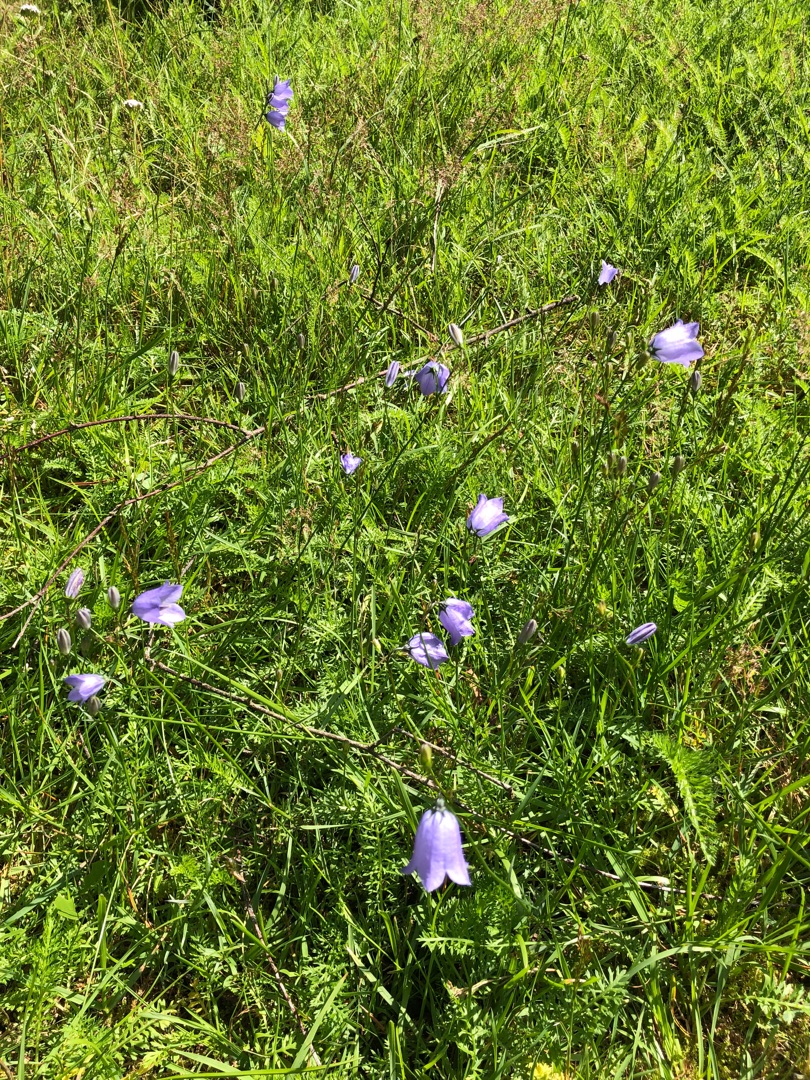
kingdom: Plantae
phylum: Tracheophyta
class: Magnoliopsida
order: Asterales
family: Campanulaceae
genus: Campanula
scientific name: Campanula rotundifolia
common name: Liden klokke
